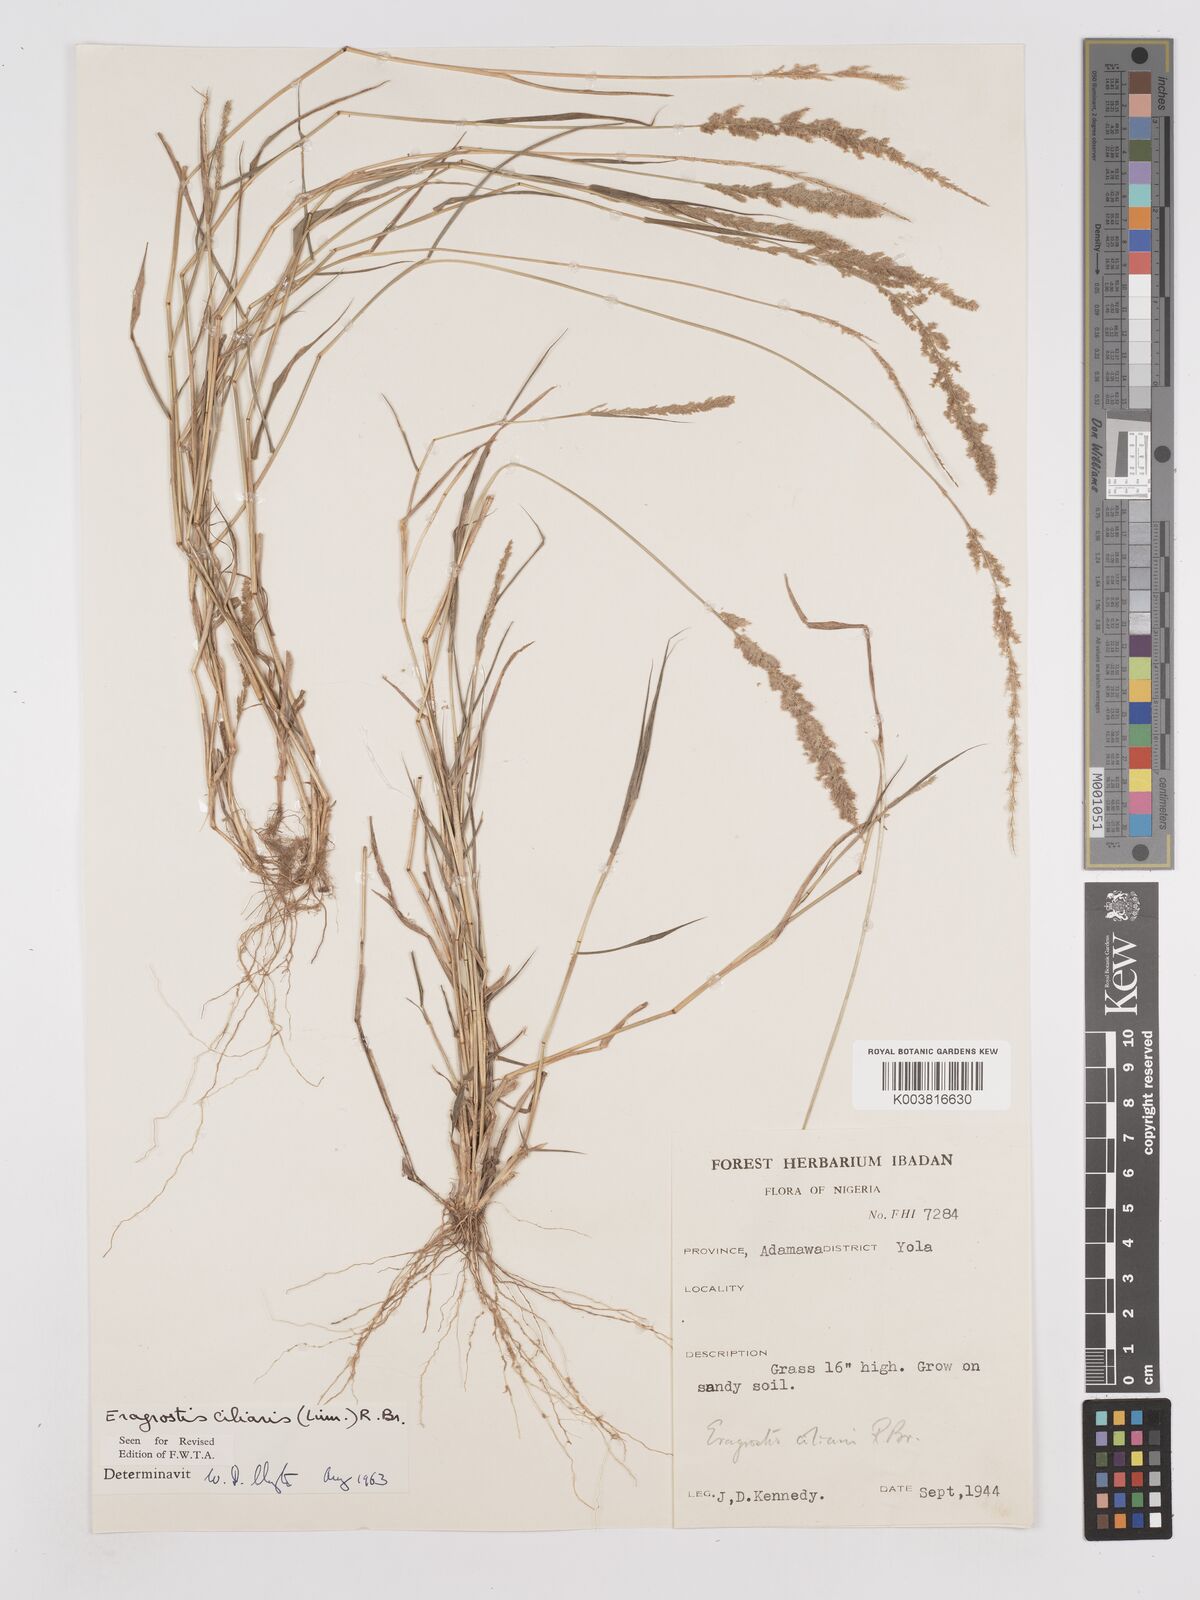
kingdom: Plantae
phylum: Tracheophyta
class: Liliopsida
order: Poales
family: Poaceae
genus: Eragrostis
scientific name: Eragrostis ciliaris
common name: Gophertail lovegrass
